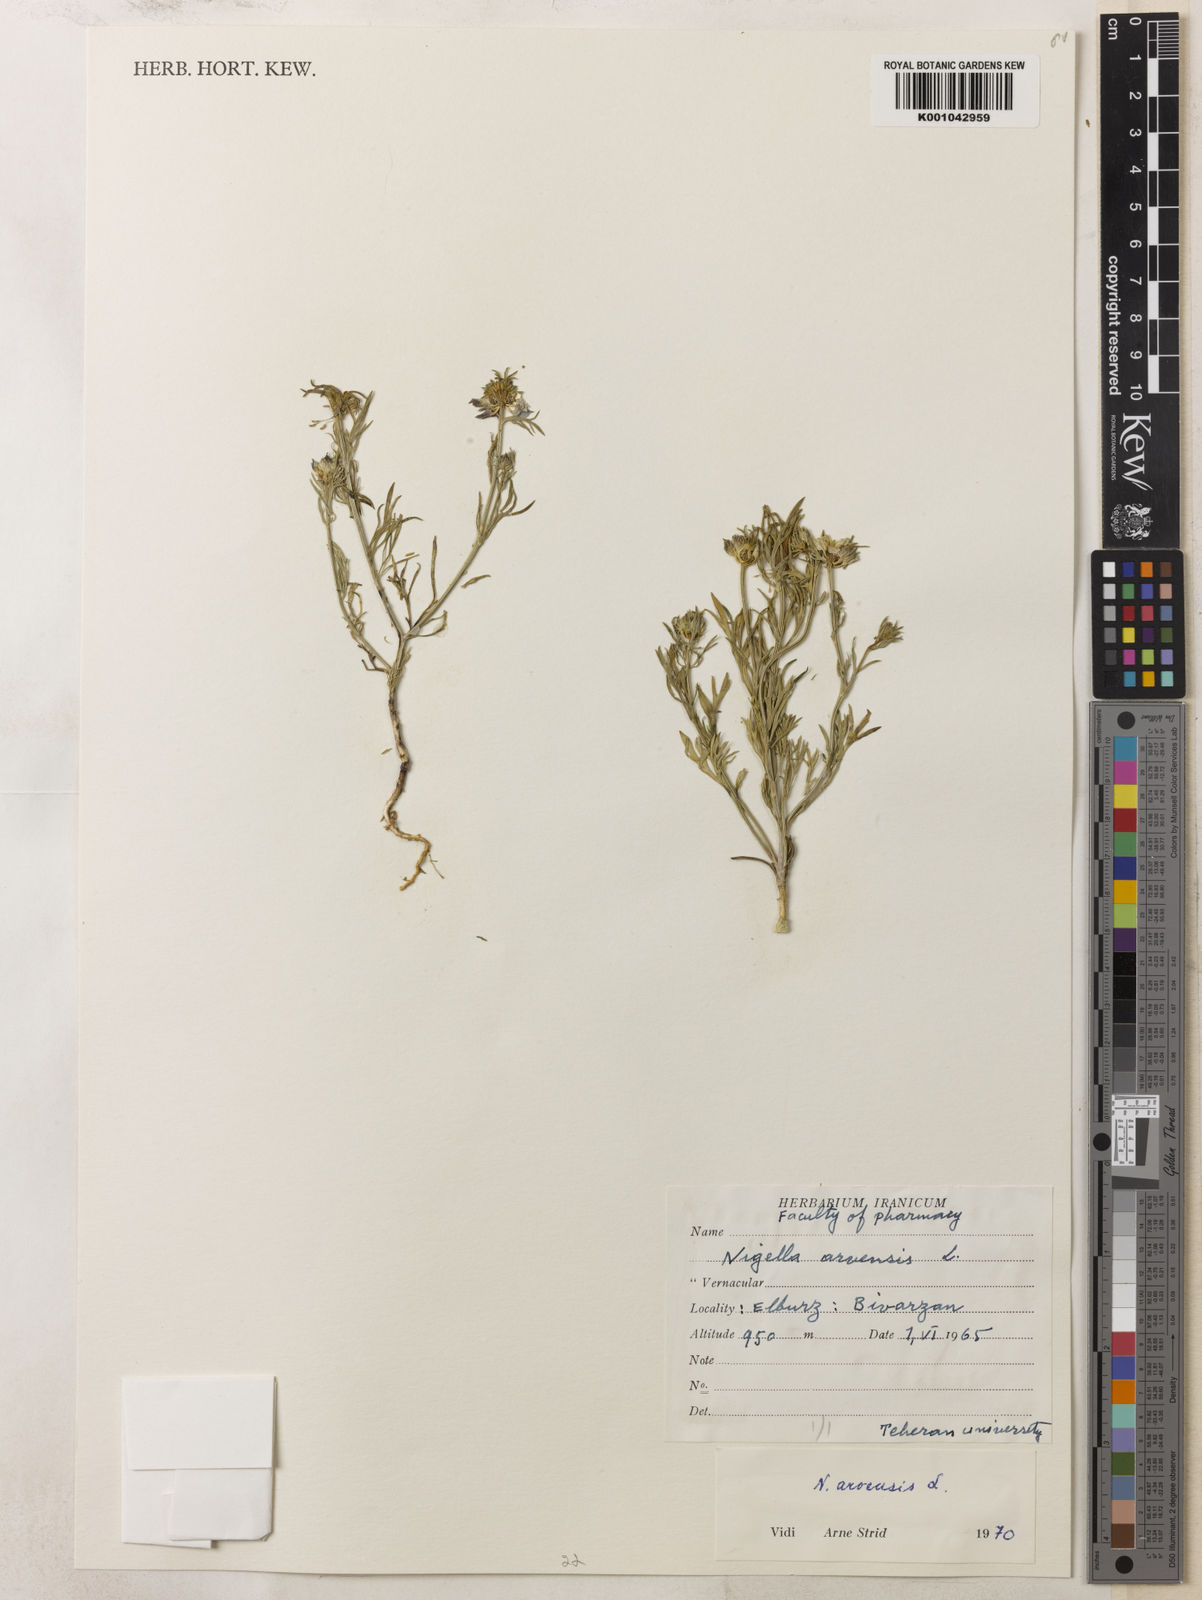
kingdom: Plantae
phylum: Tracheophyta
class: Magnoliopsida
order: Ranunculales
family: Ranunculaceae
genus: Nigella
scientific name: Nigella arvensis
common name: Wild fennel-flower
